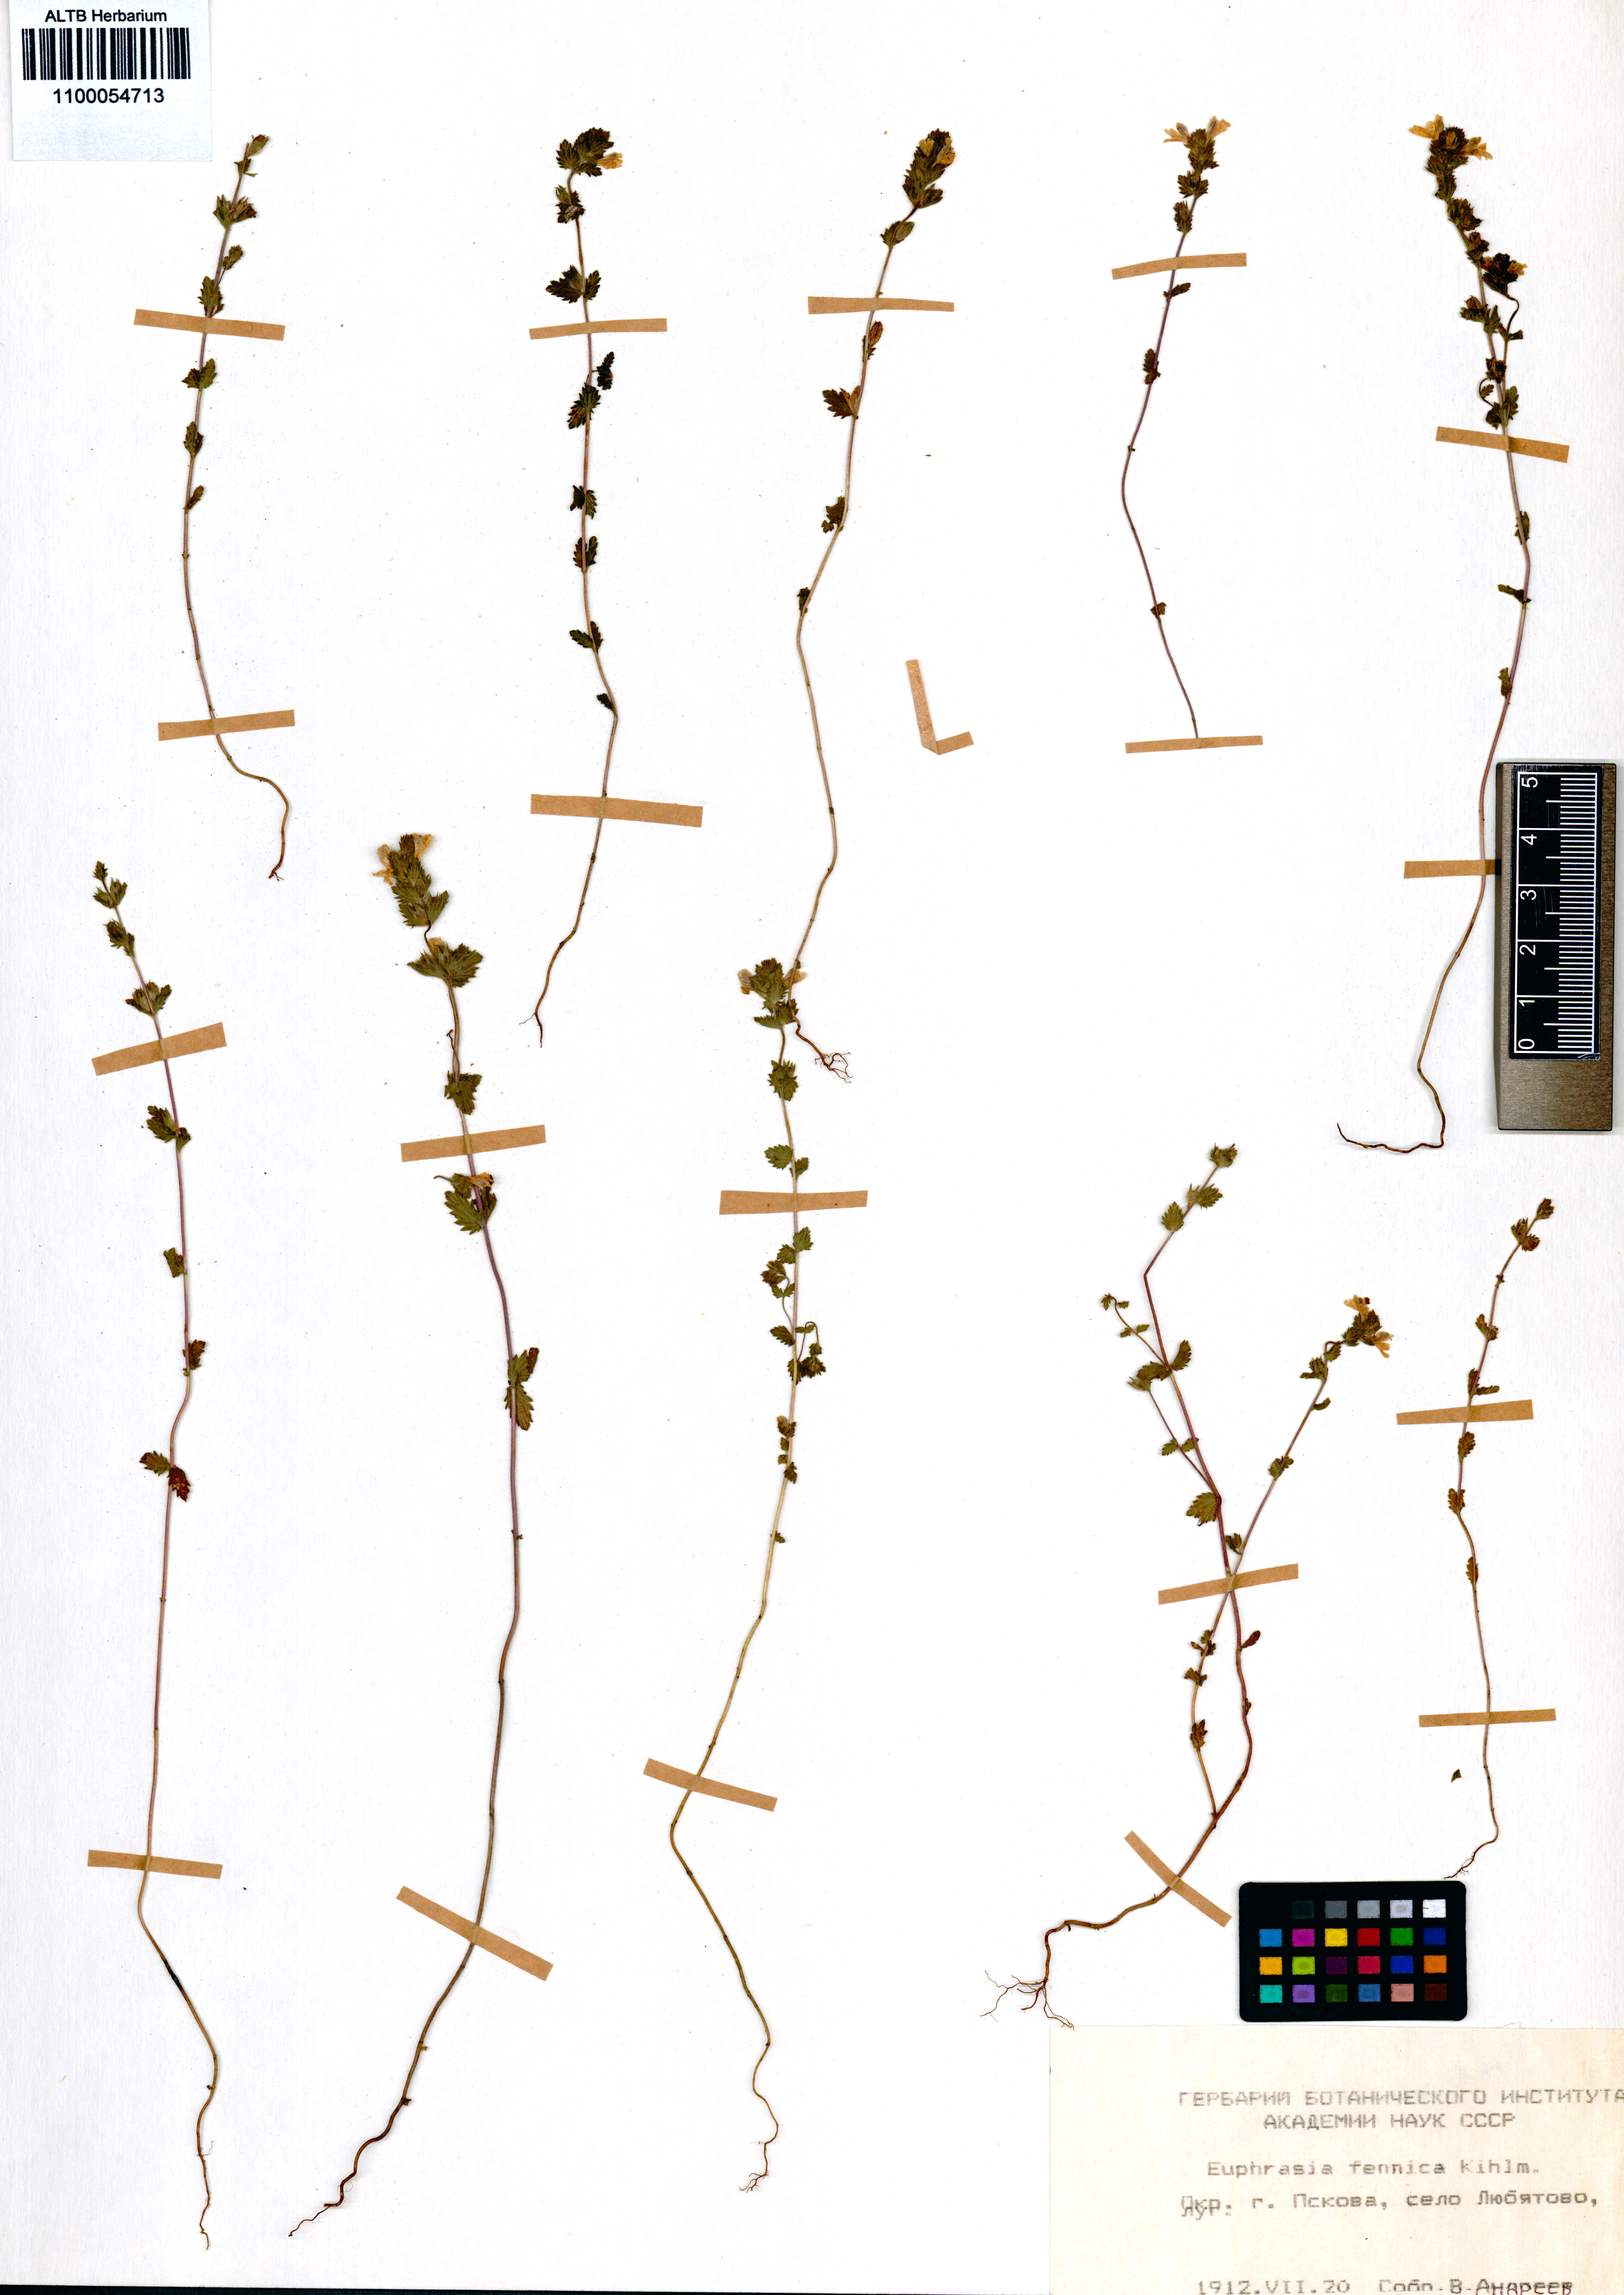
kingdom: Plantae
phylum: Tracheophyta
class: Magnoliopsida
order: Lamiales
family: Orobanchaceae
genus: Euphrasia
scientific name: Euphrasia officinalis
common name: Eyebright
